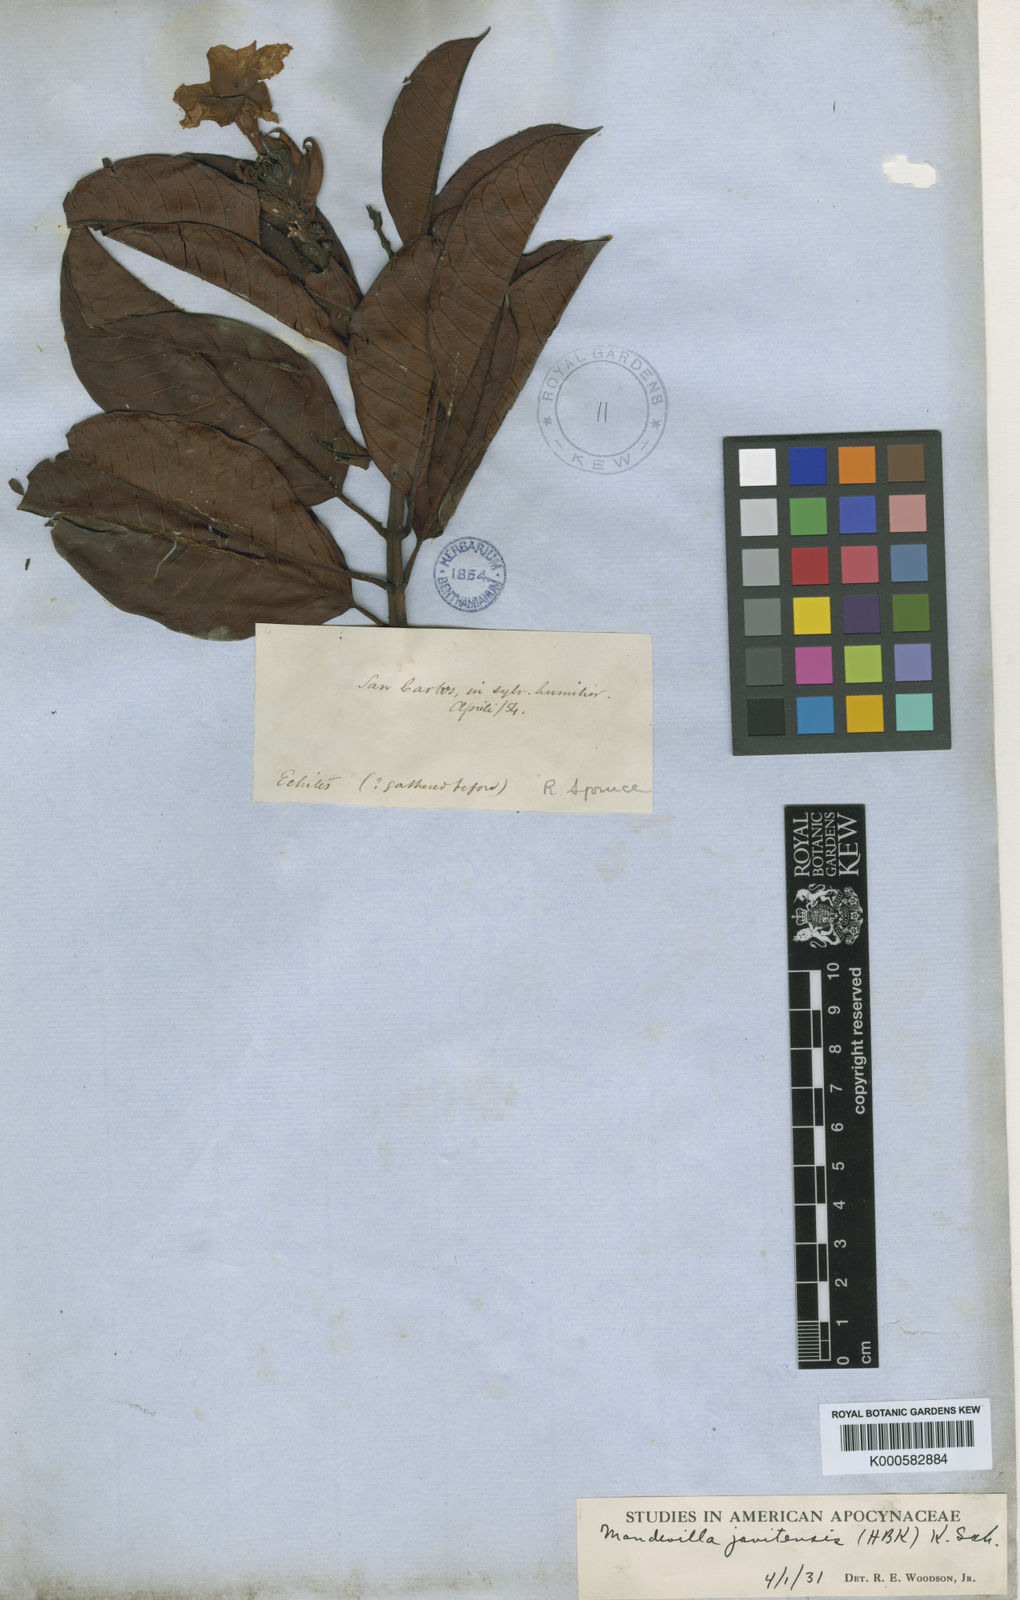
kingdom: Plantae
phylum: Tracheophyta
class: Magnoliopsida
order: Gentianales
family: Apocynaceae
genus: Mandevilla
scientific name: Mandevilla javitensis
